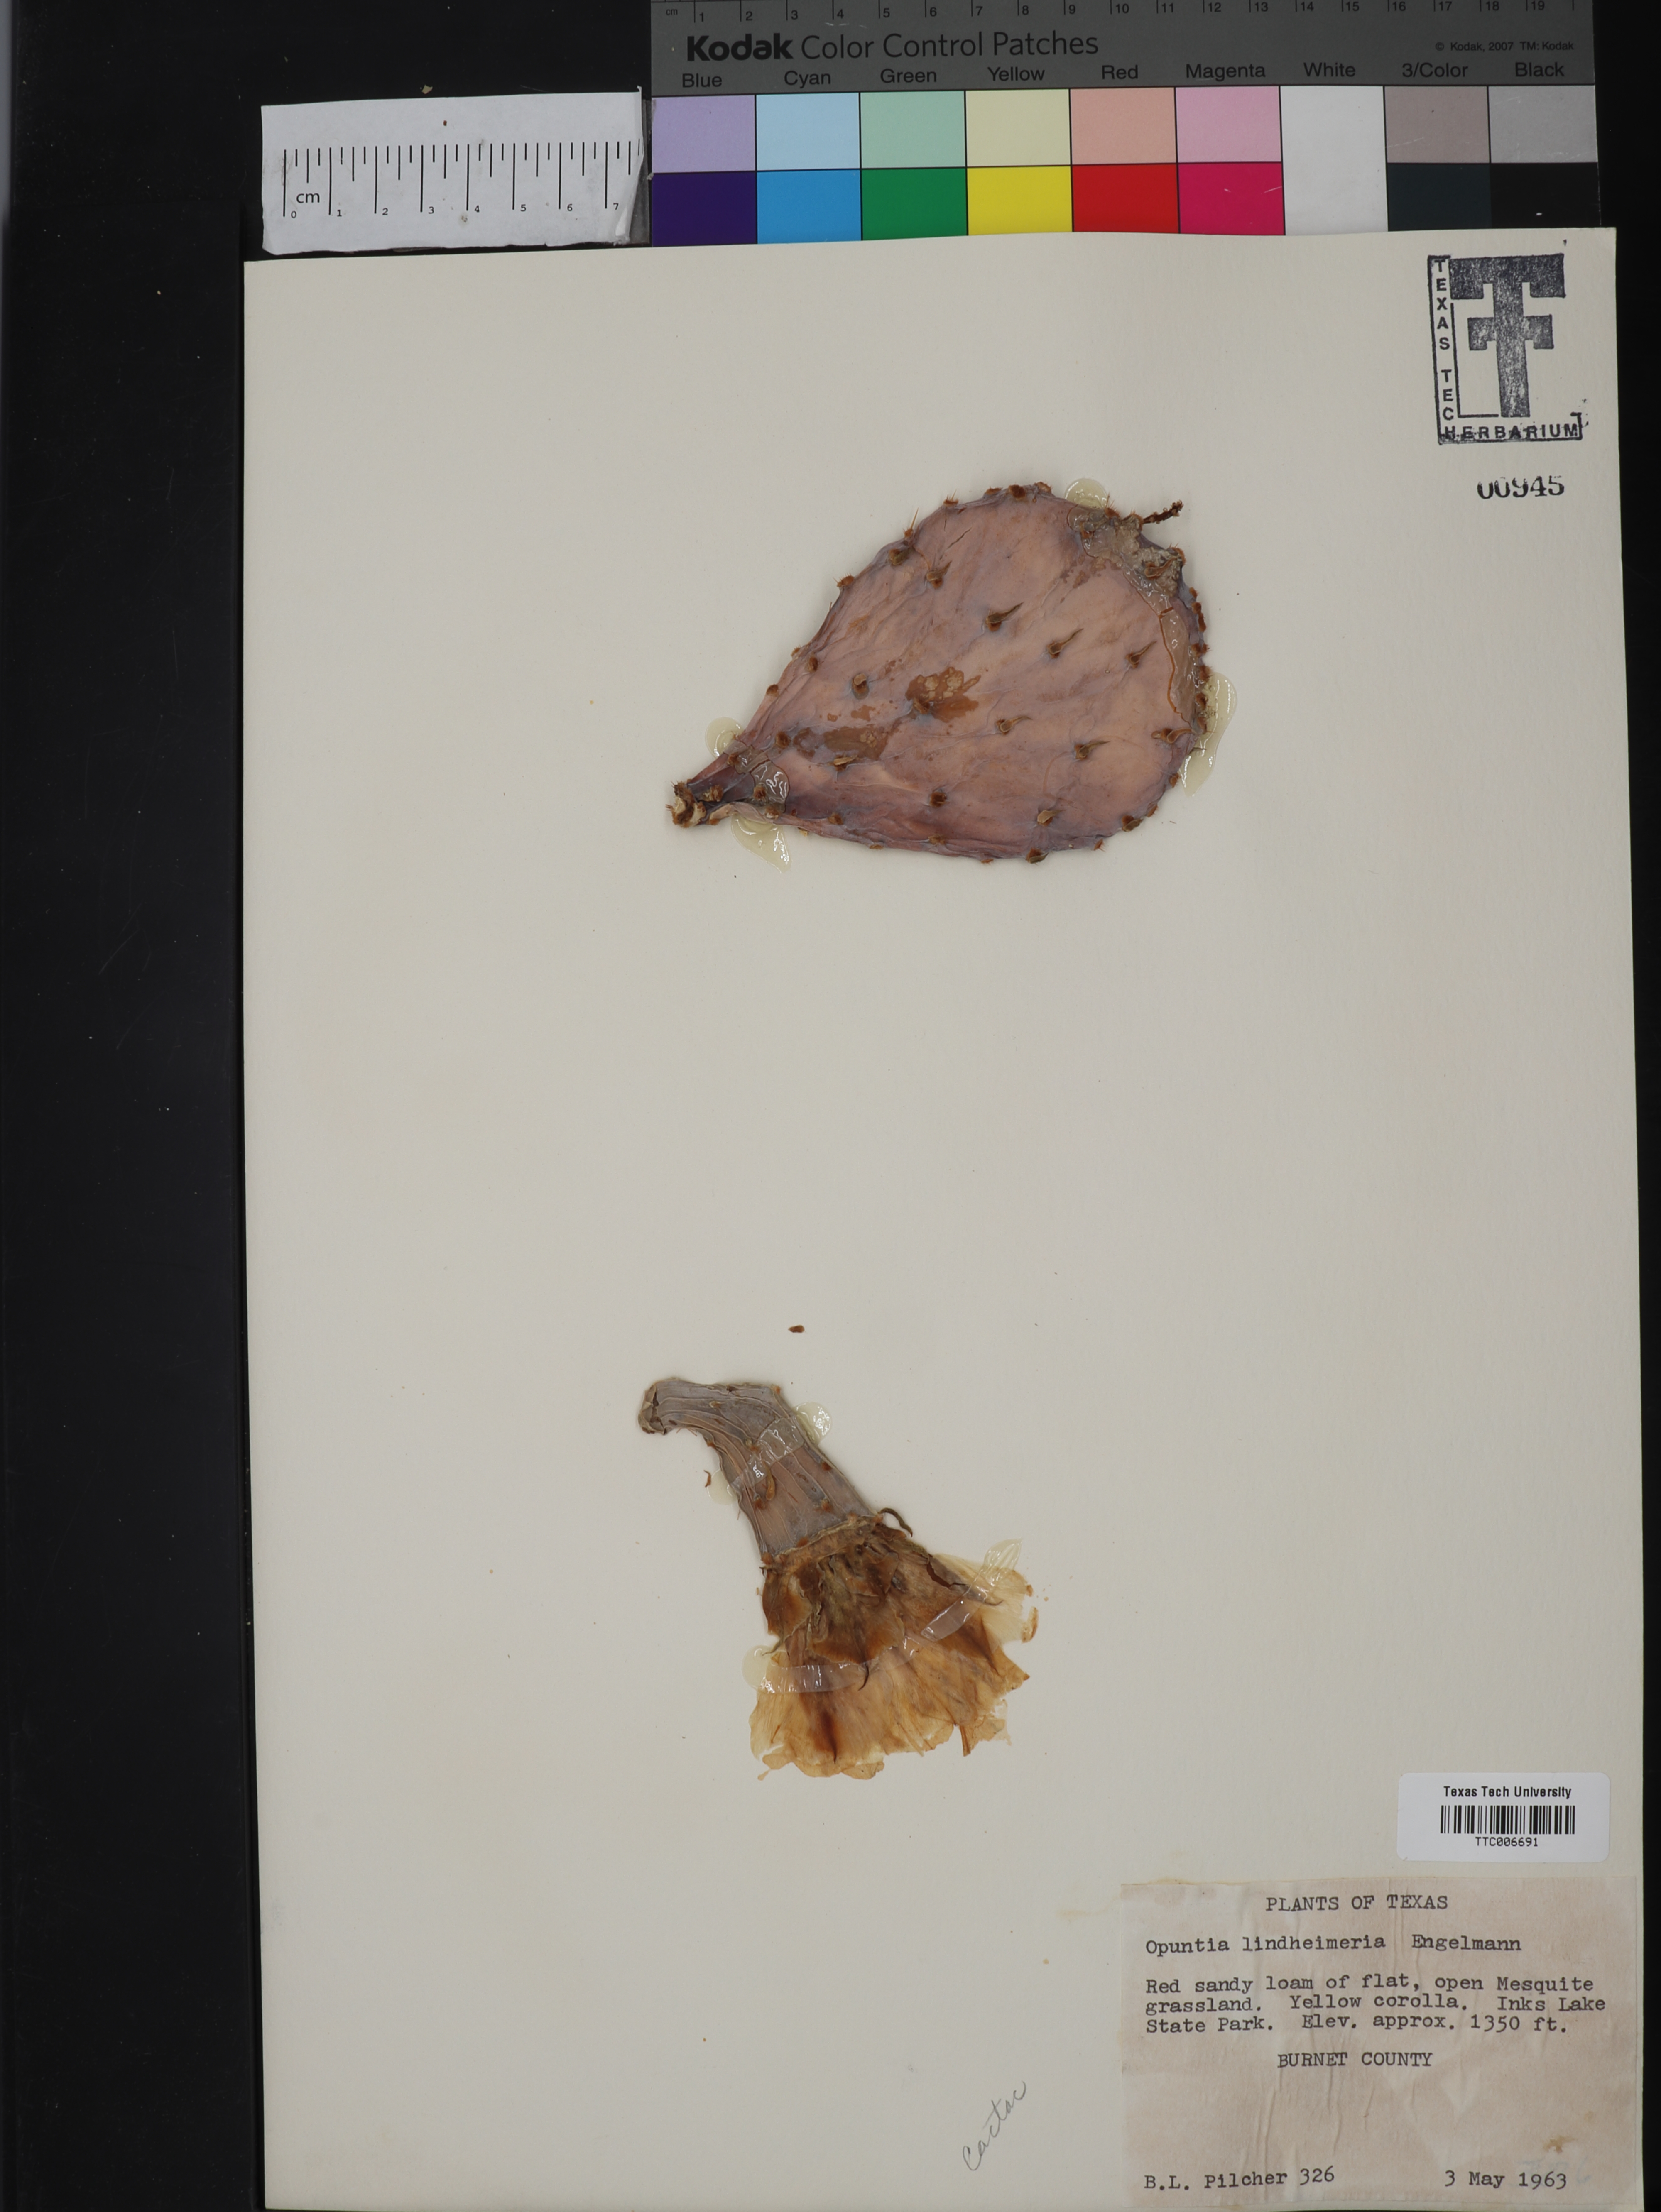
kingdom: Plantae
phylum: Tracheophyta
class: Magnoliopsida
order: Caryophyllales
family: Cactaceae
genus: Opuntia
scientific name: Opuntia engelmannii
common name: Cactus-apple
